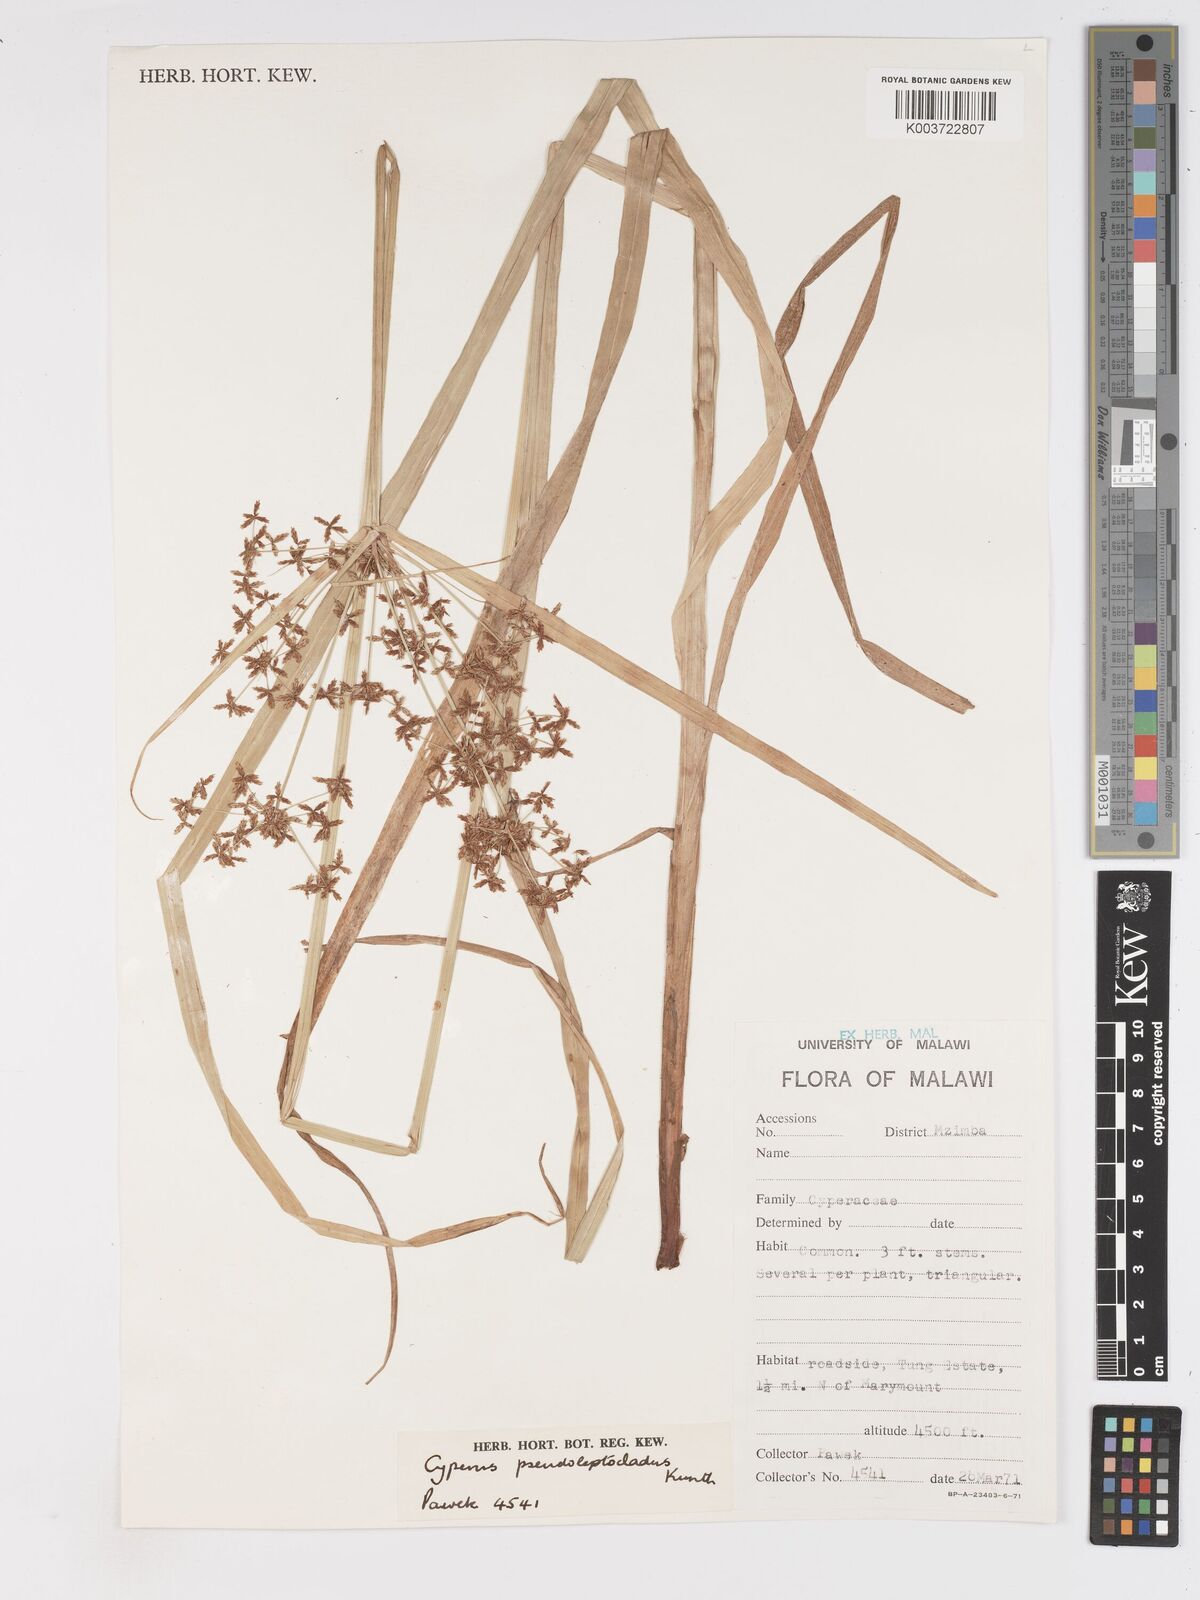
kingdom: Plantae
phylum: Tracheophyta
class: Liliopsida
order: Poales
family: Cyperaceae
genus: Cyperus
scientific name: Cyperus pseuderemicus
